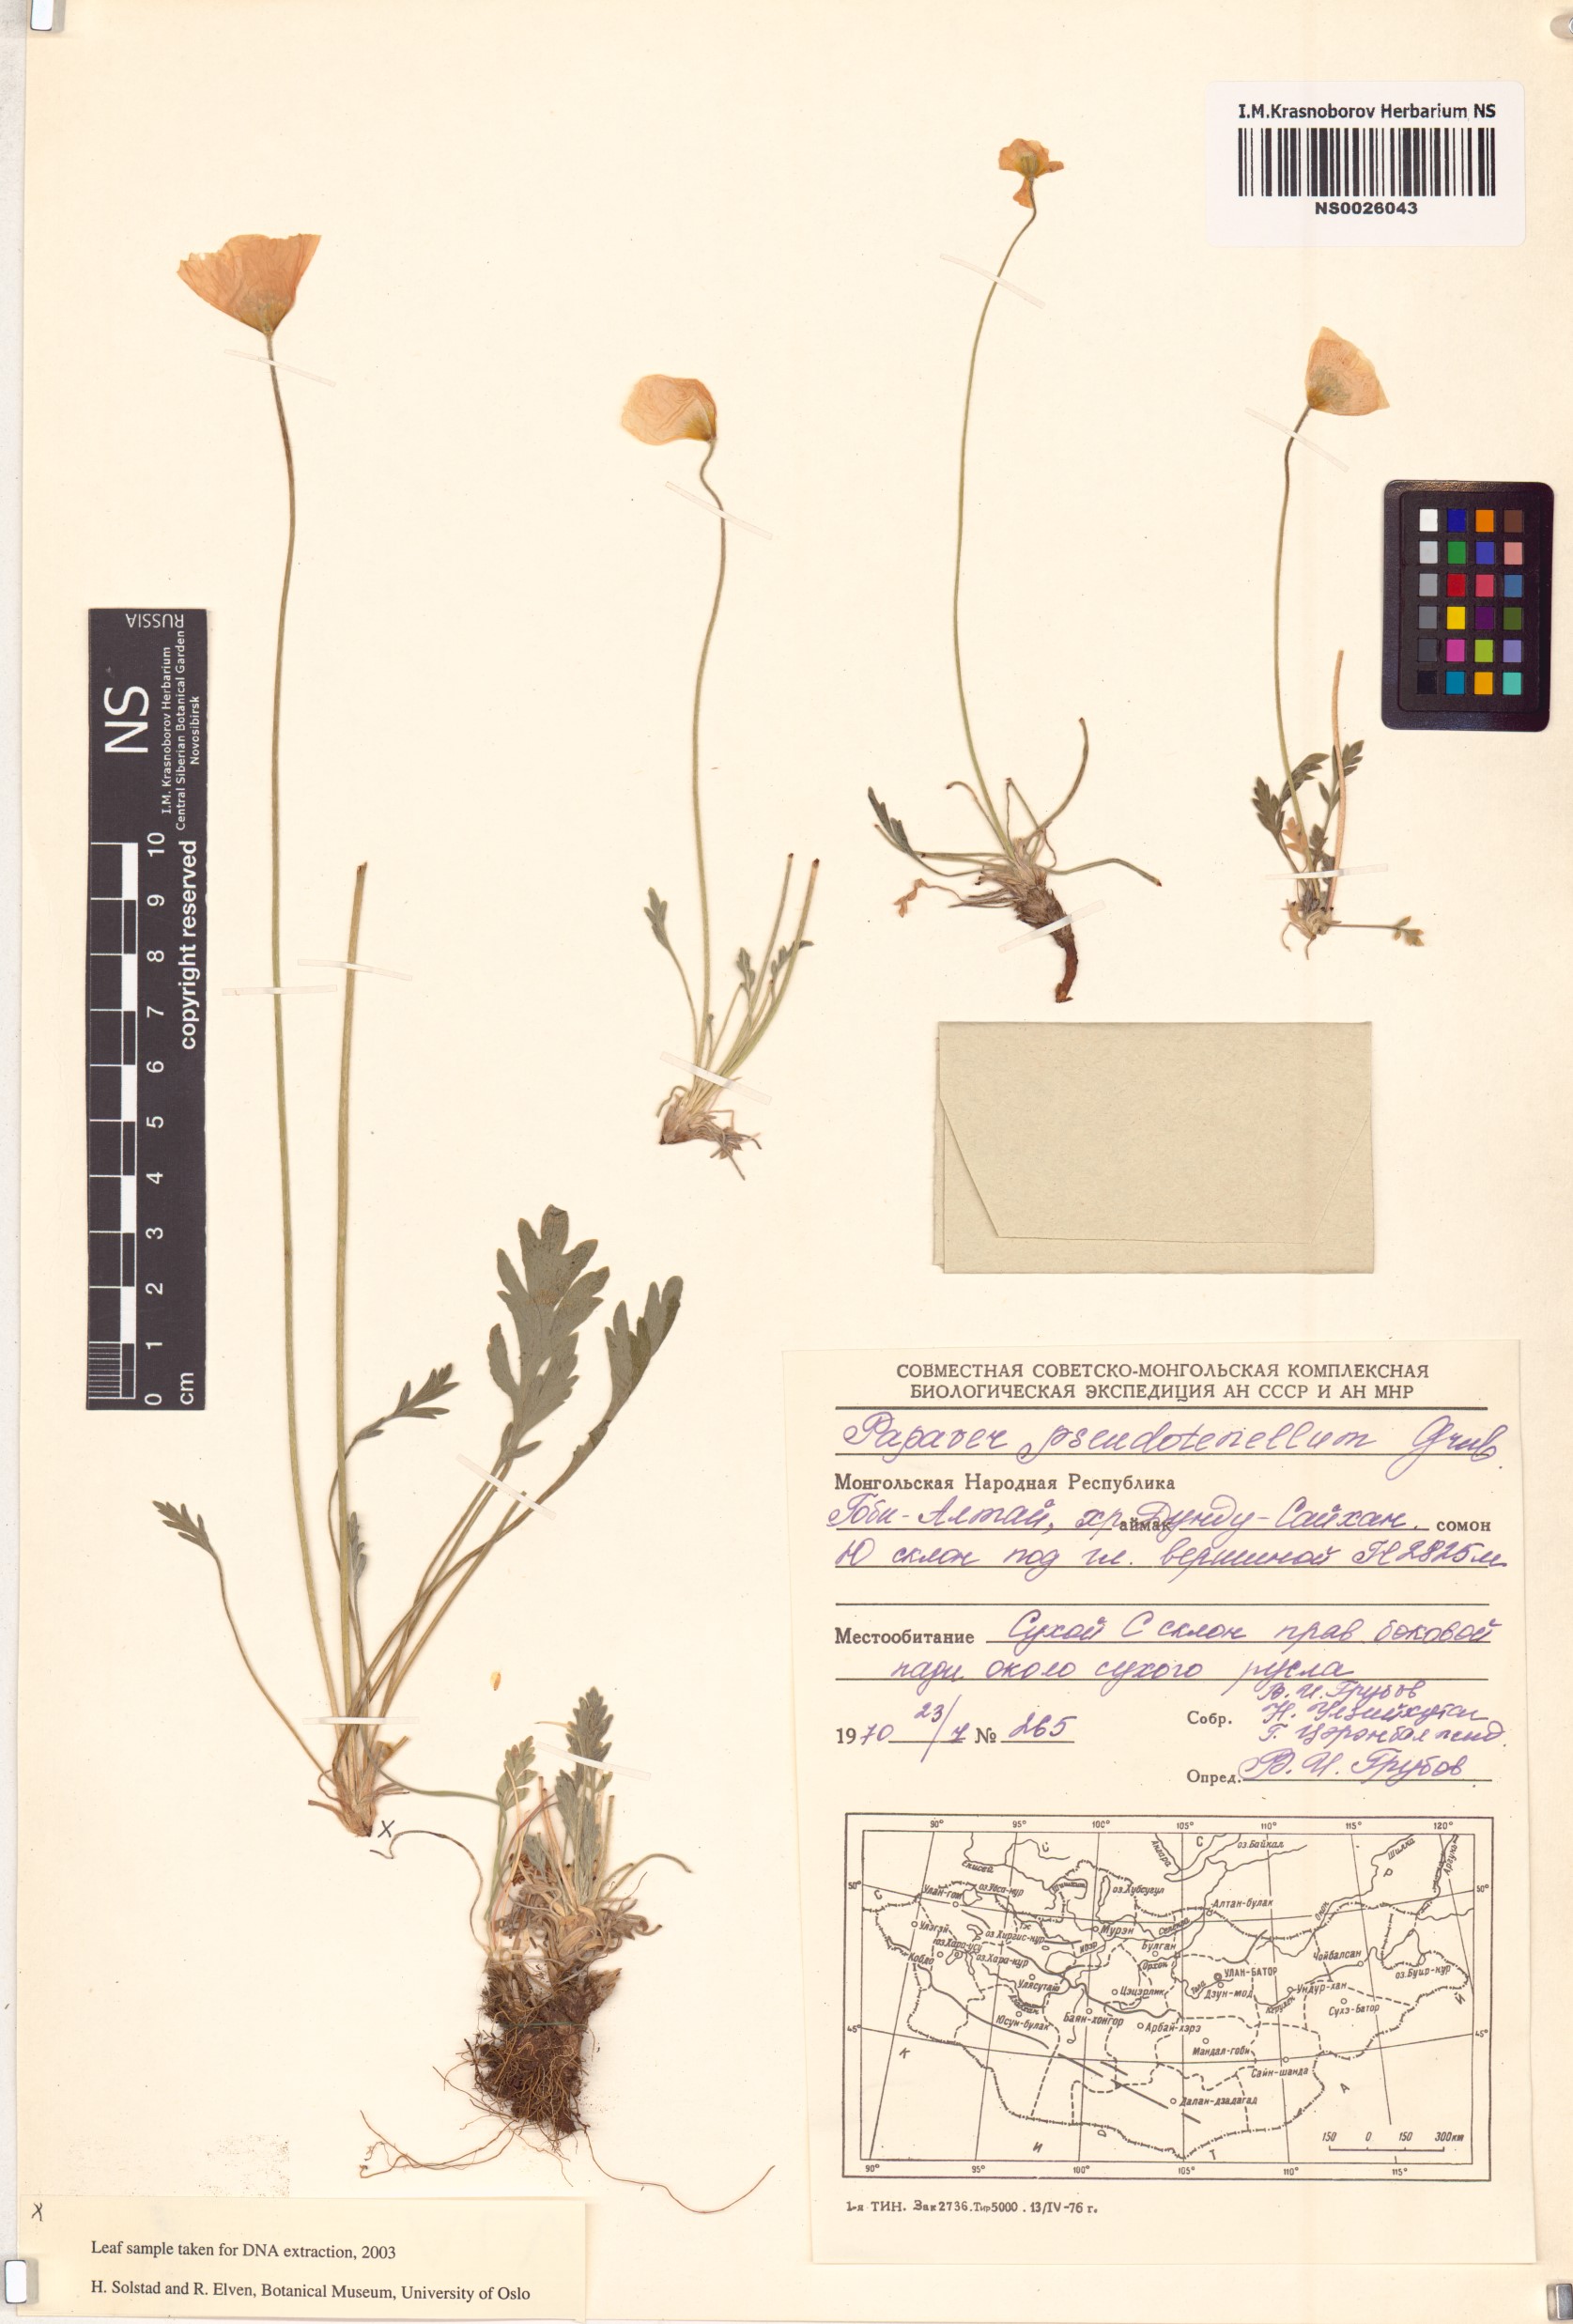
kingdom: Plantae
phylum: Tracheophyta
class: Magnoliopsida
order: Ranunculales
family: Papaveraceae
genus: Papaver
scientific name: Papaver croceum
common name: Siberian poppy
